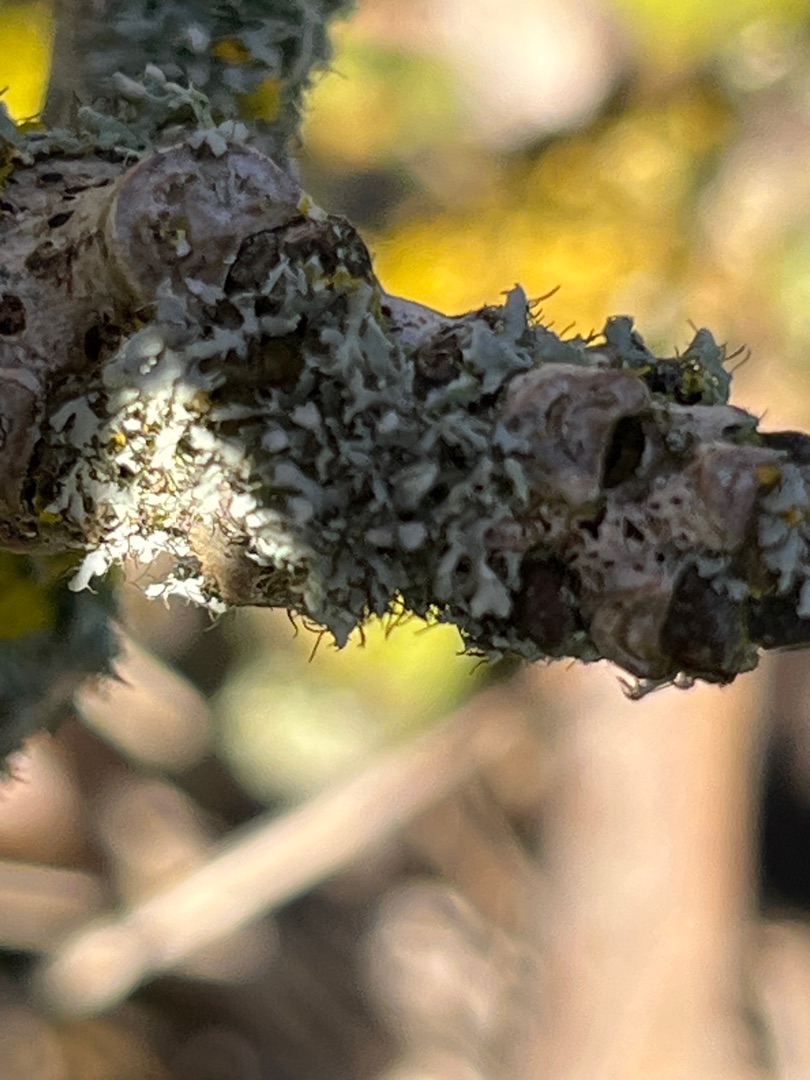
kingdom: Fungi
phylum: Ascomycota
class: Lecanoromycetes
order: Caliciales
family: Physciaceae
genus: Physcia
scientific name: Physcia adscendens
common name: Hætte-rosetlav
